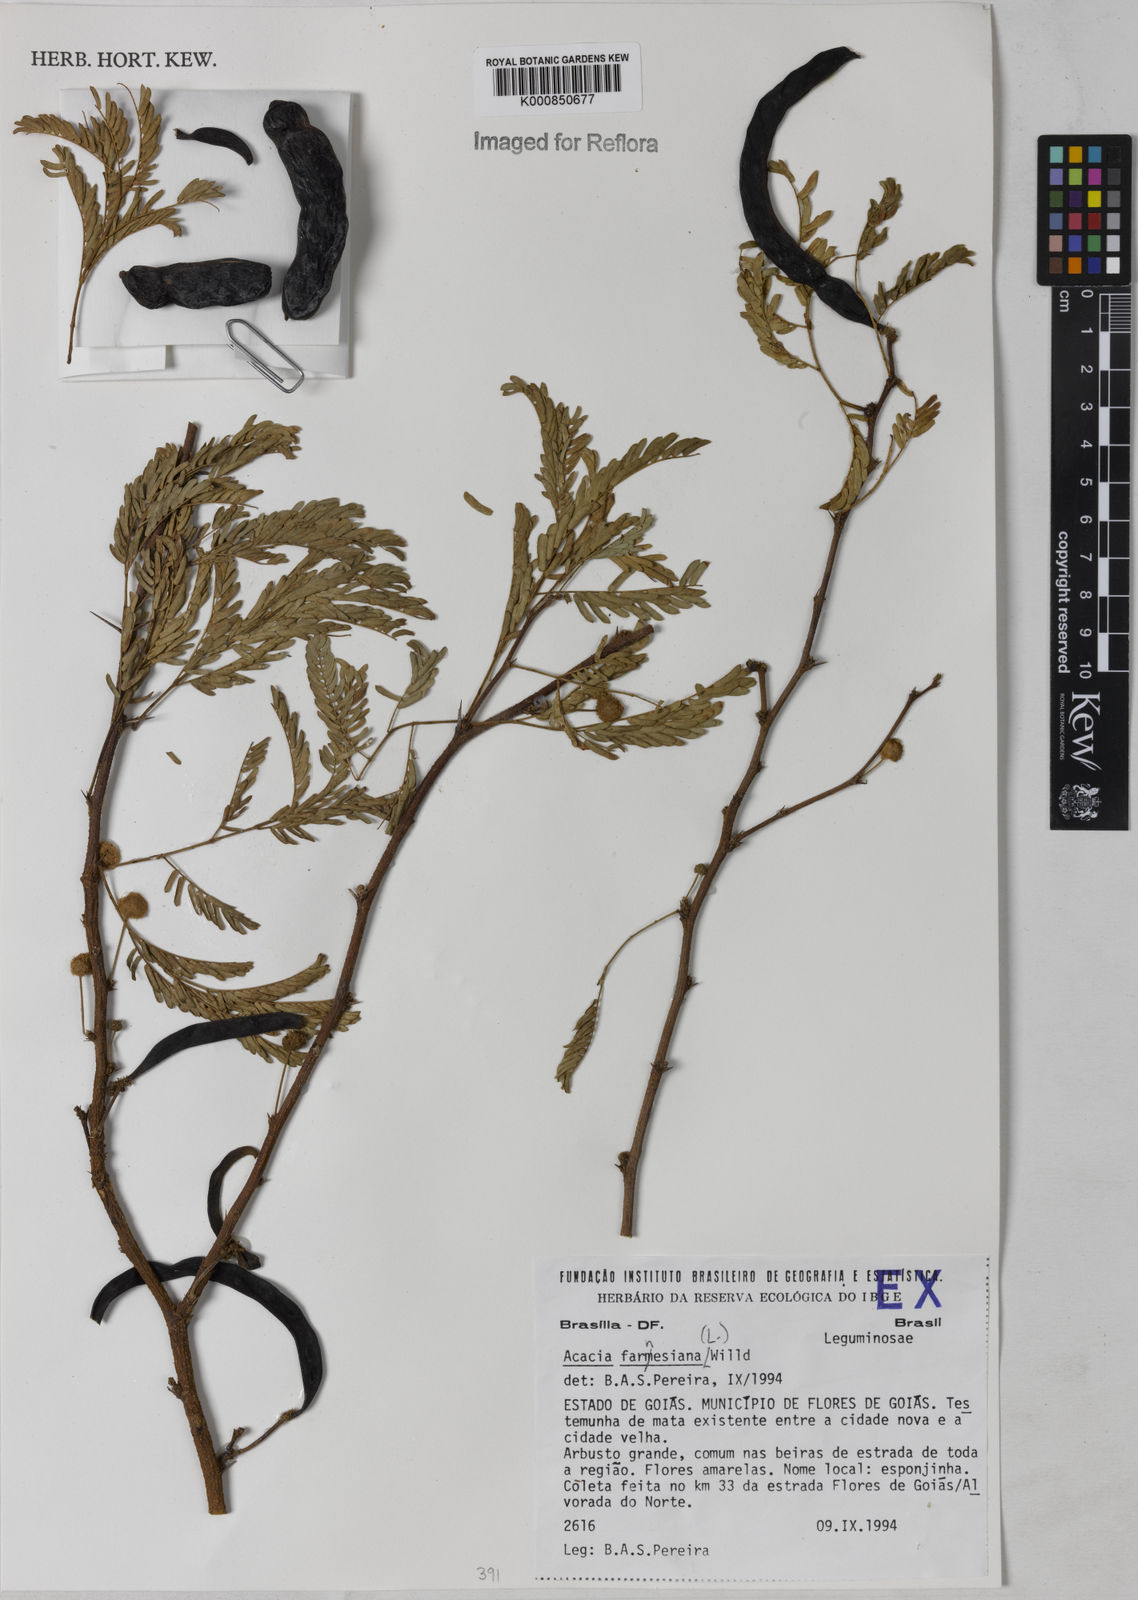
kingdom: Plantae
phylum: Tracheophyta
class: Magnoliopsida
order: Fabales
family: Fabaceae
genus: Vachellia
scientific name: Vachellia farnesiana
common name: Sweet acacia
